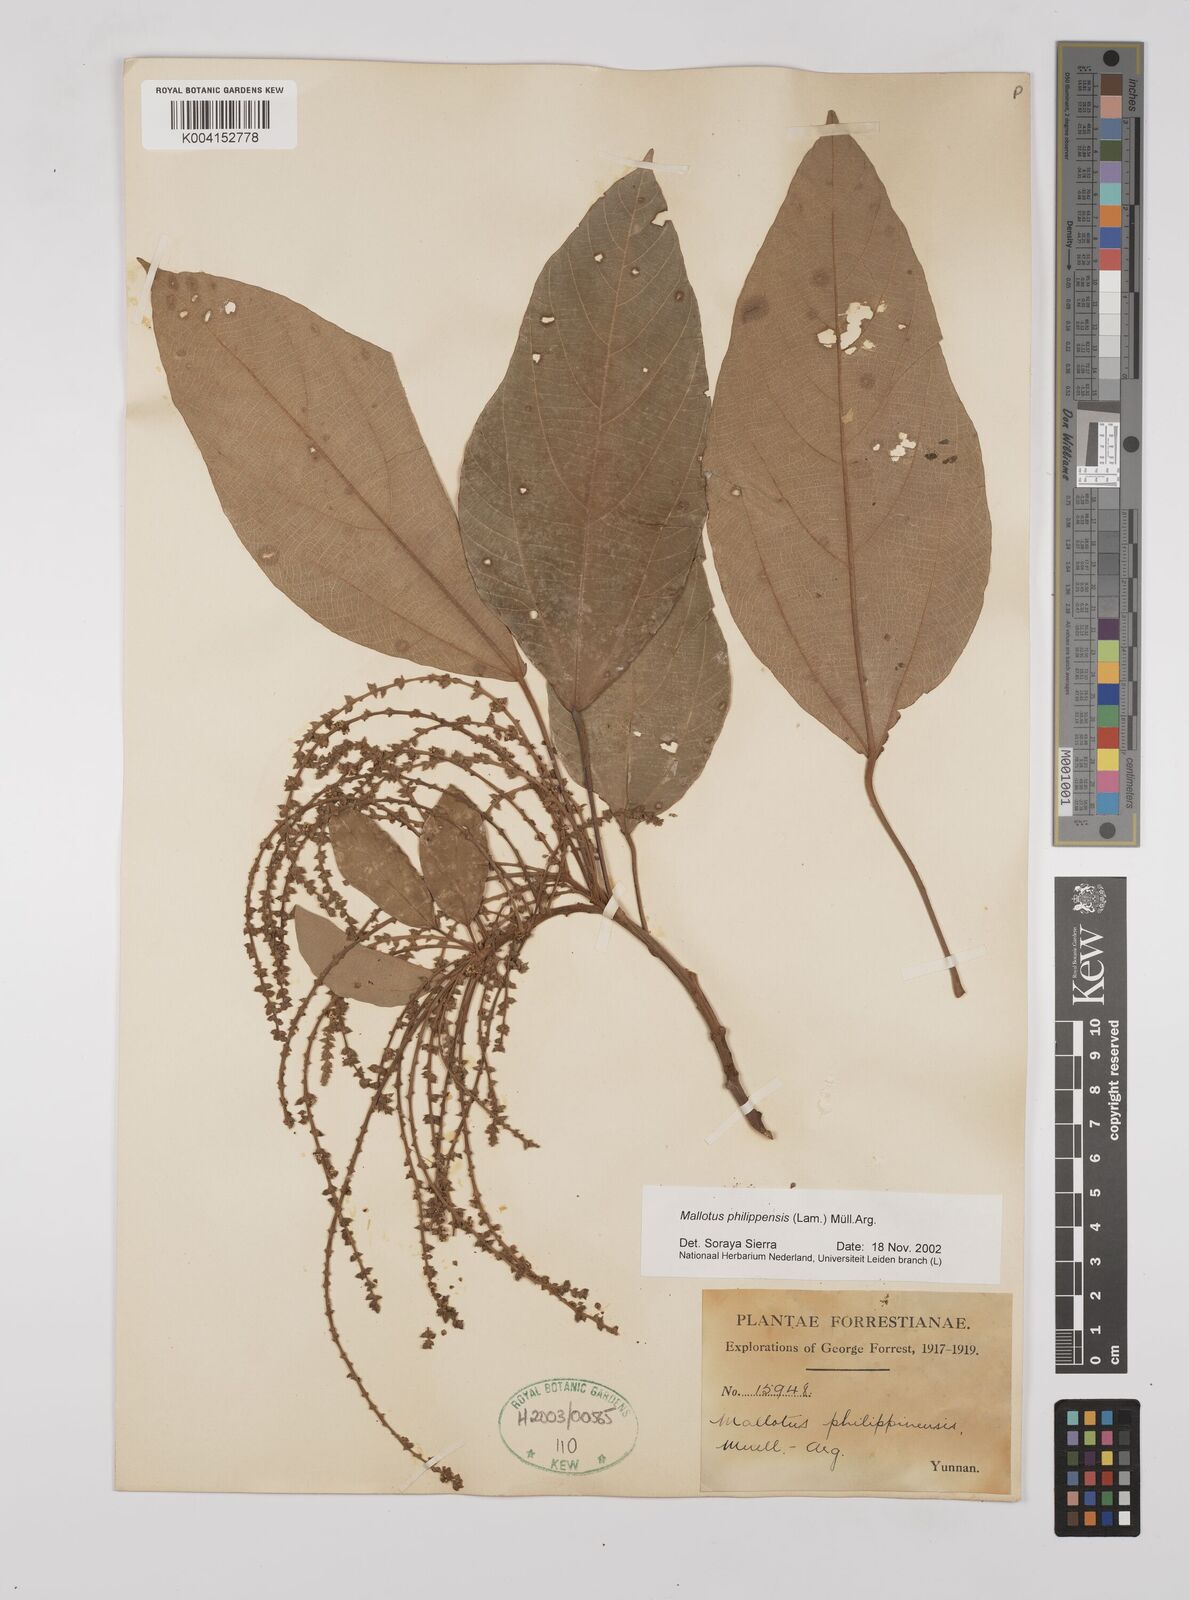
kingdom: Plantae
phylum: Tracheophyta
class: Magnoliopsida
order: Malpighiales
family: Euphorbiaceae
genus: Mallotus
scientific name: Mallotus philippensis
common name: Kamala tree
